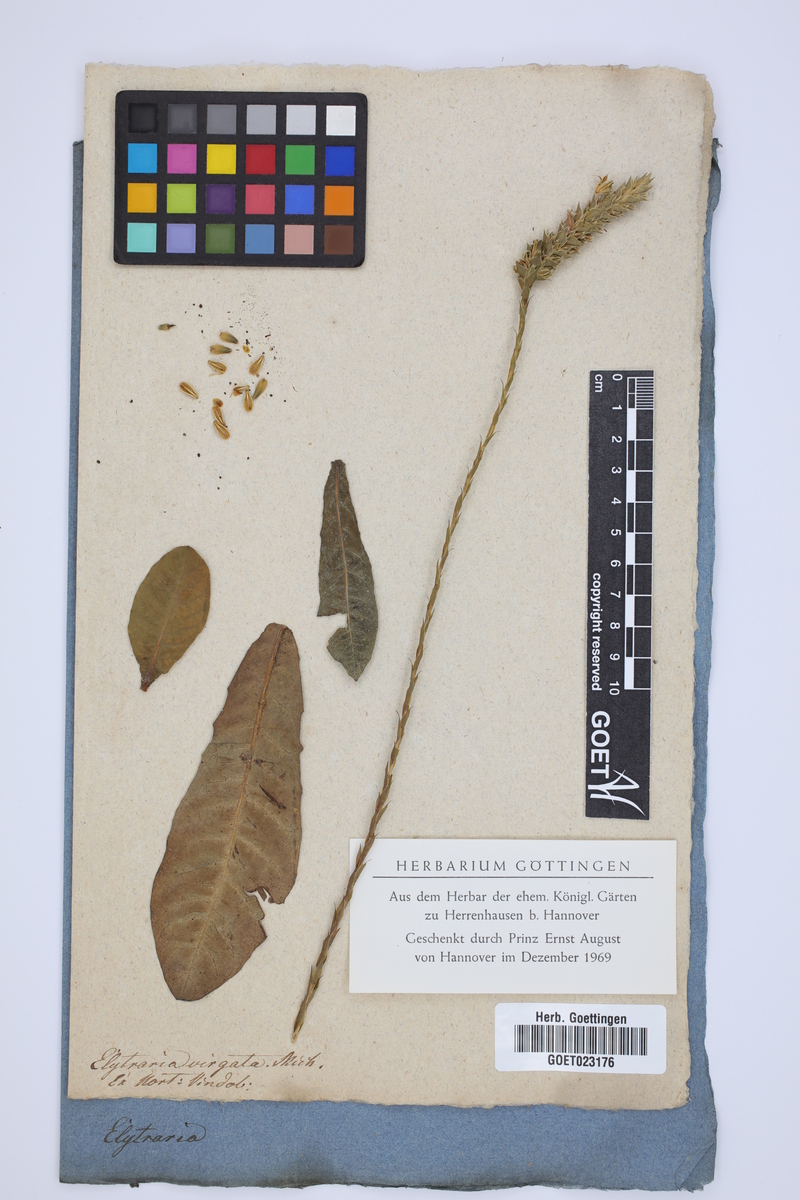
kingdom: Plantae
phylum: Tracheophyta
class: Magnoliopsida
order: Lamiales
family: Acanthaceae
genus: Elytraria
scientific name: Elytraria carolinensis
